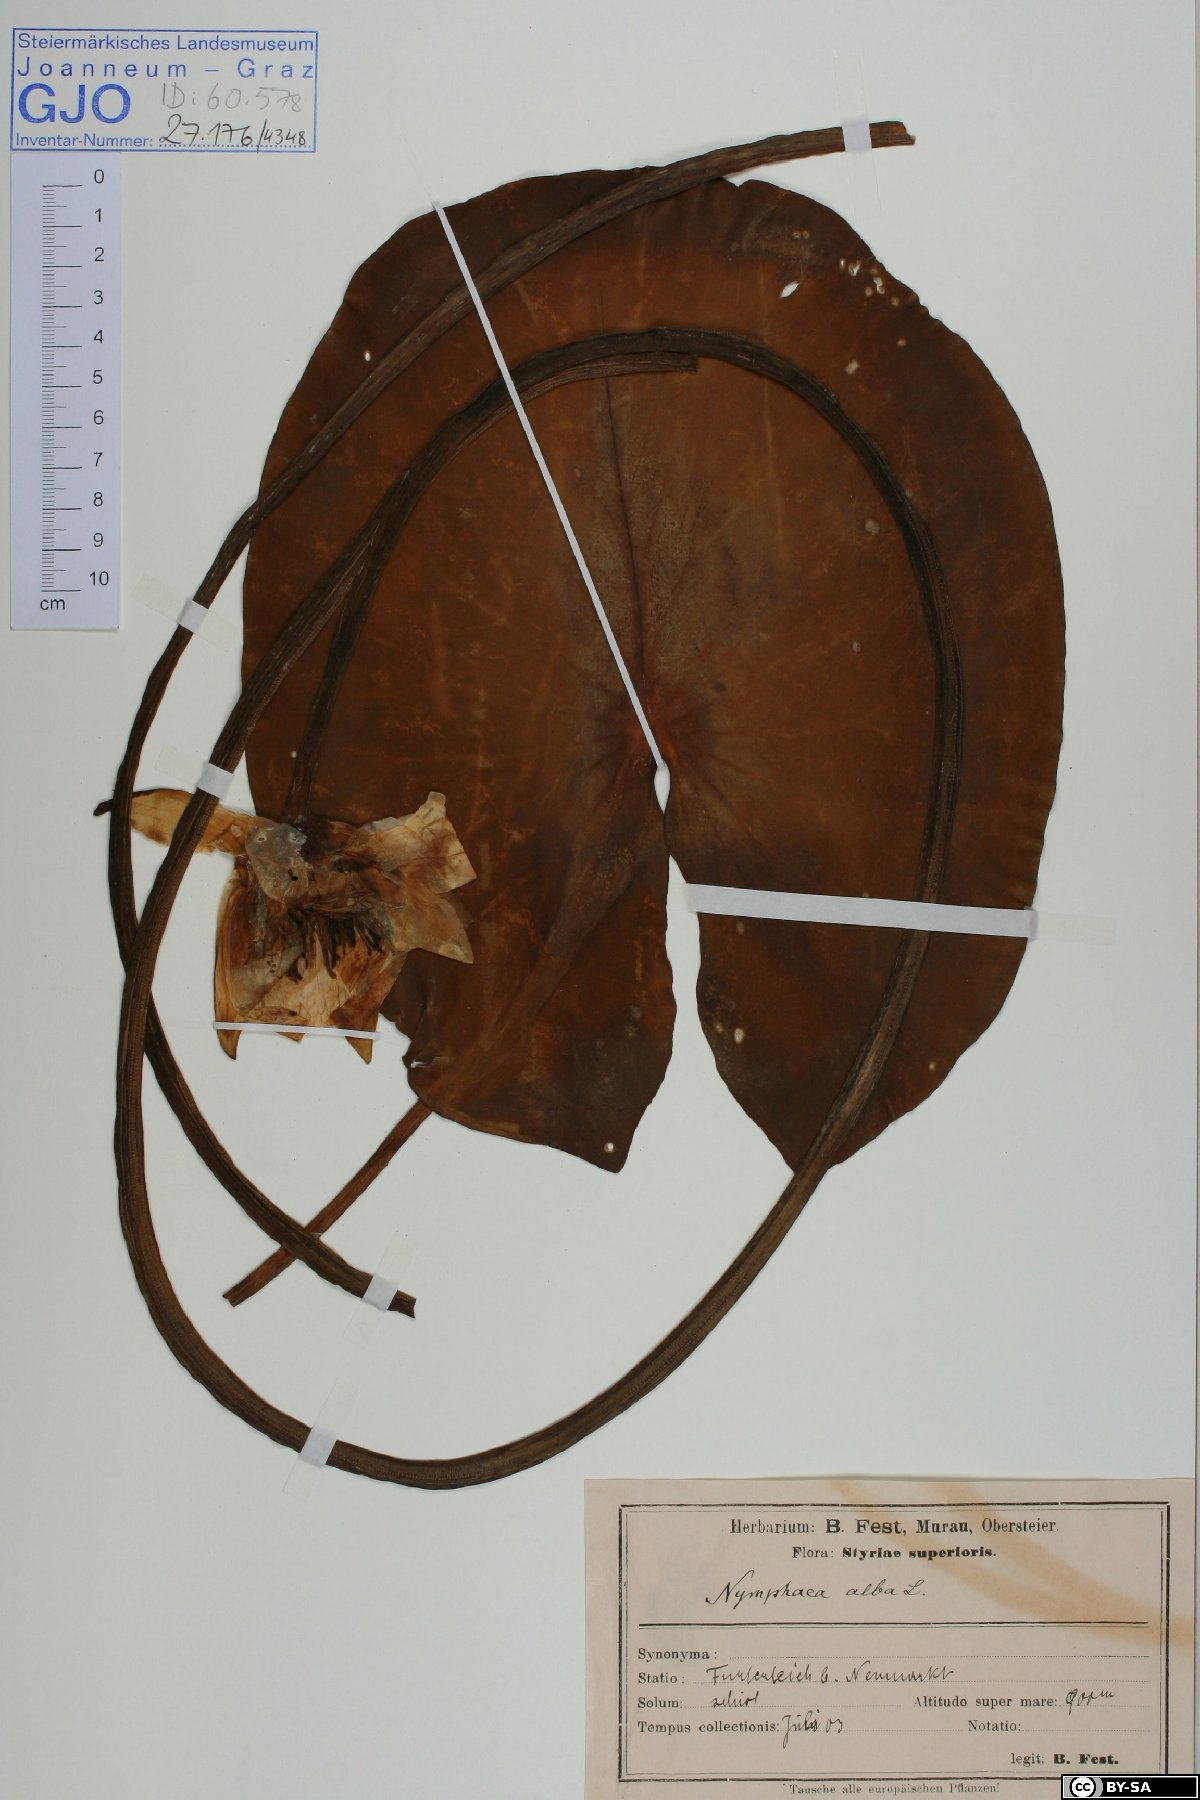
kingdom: Plantae
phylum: Tracheophyta
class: Magnoliopsida
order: Nymphaeales
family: Nymphaeaceae
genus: Nymphaea
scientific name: Nymphaea alba
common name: White water-lily
